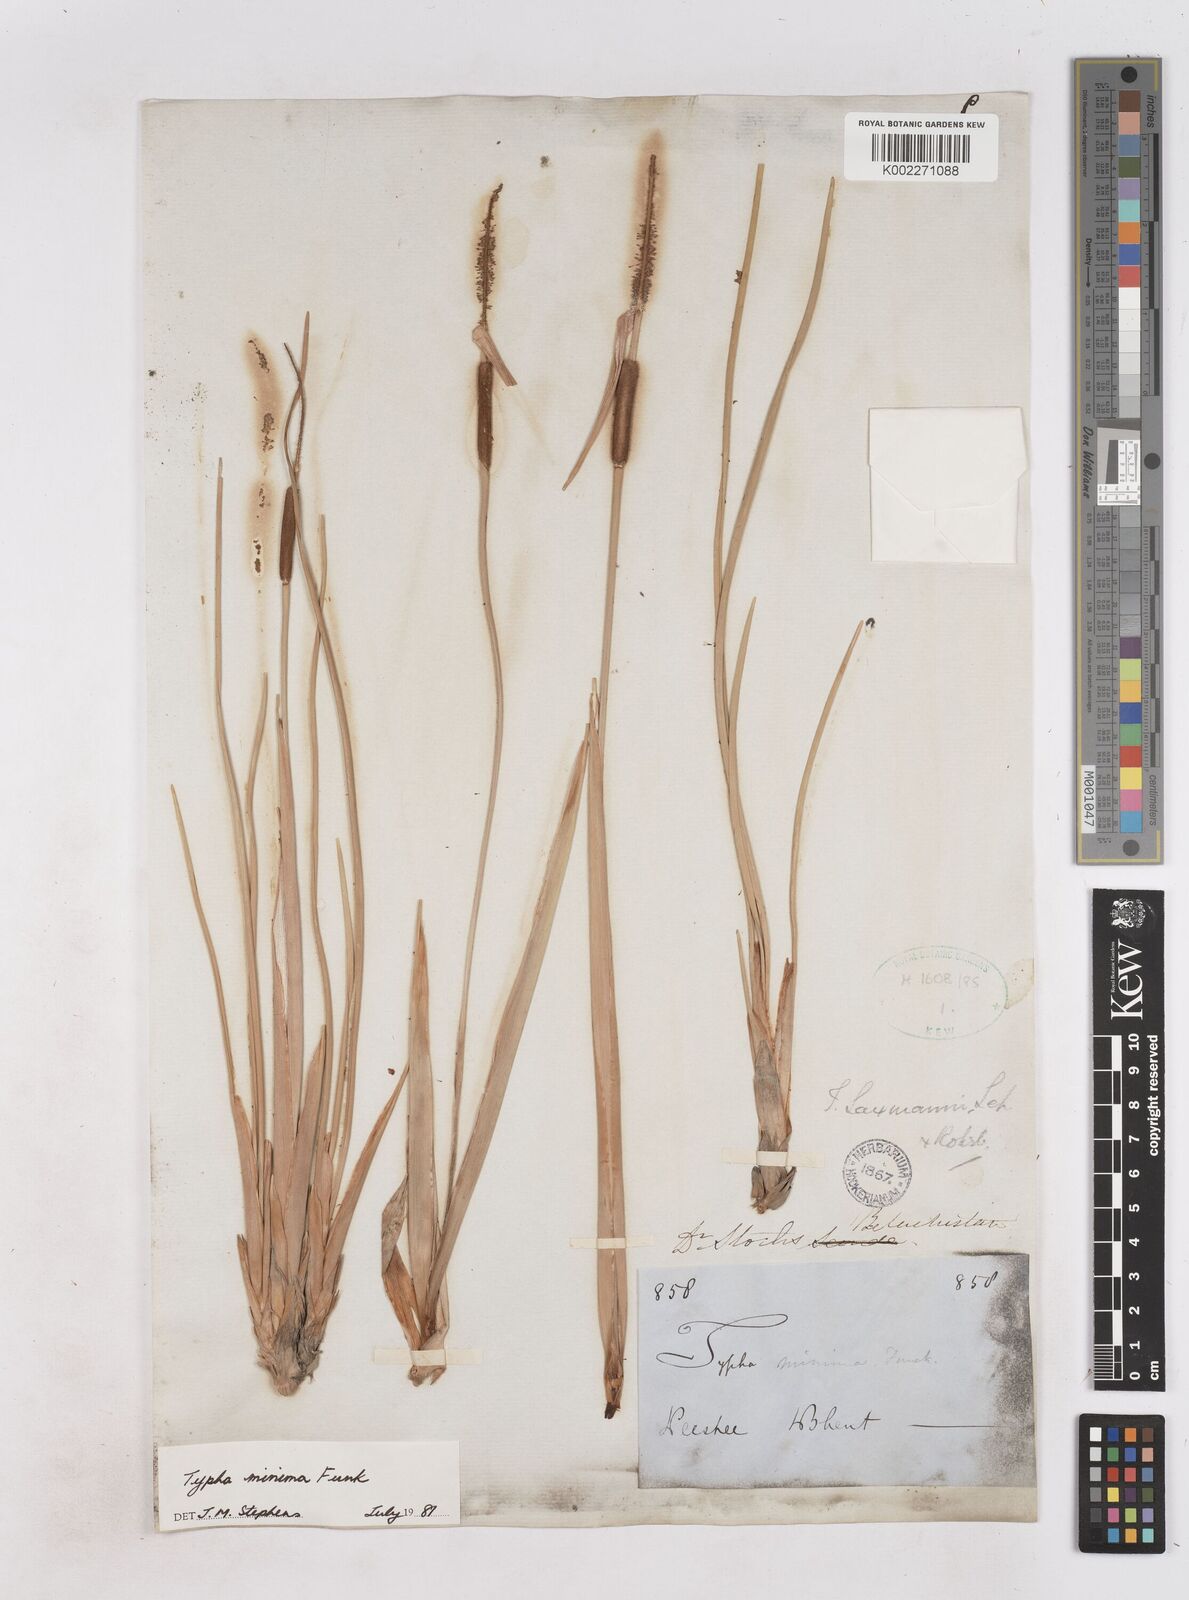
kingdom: Plantae
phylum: Tracheophyta
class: Liliopsida
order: Poales
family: Typhaceae
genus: Typha
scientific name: Typha minima
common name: Dwarf bulrush
